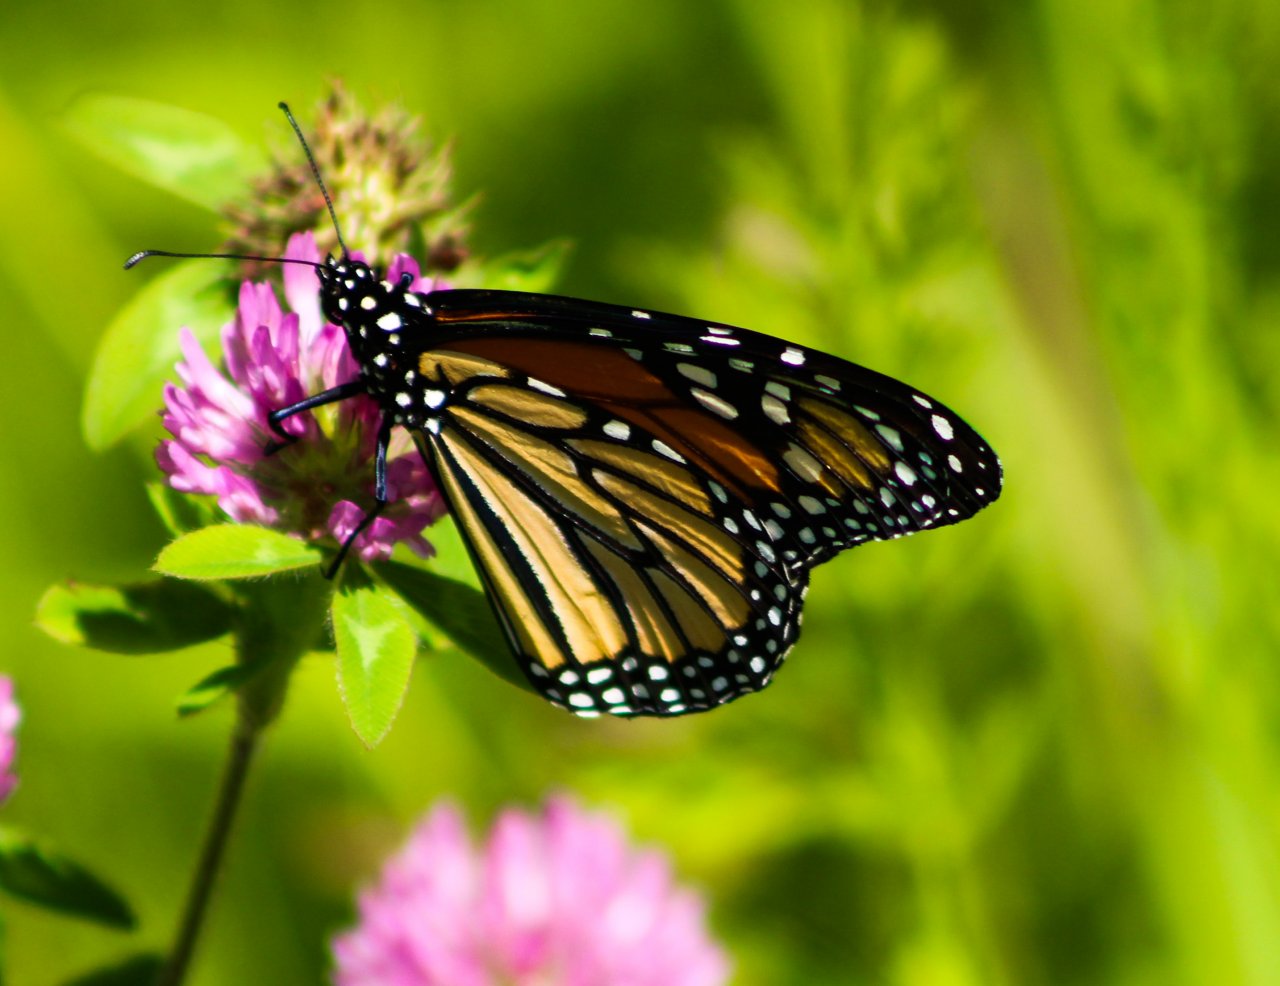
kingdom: Animalia
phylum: Arthropoda
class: Insecta
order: Lepidoptera
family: Nymphalidae
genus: Danaus
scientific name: Danaus plexippus
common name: Monarch
